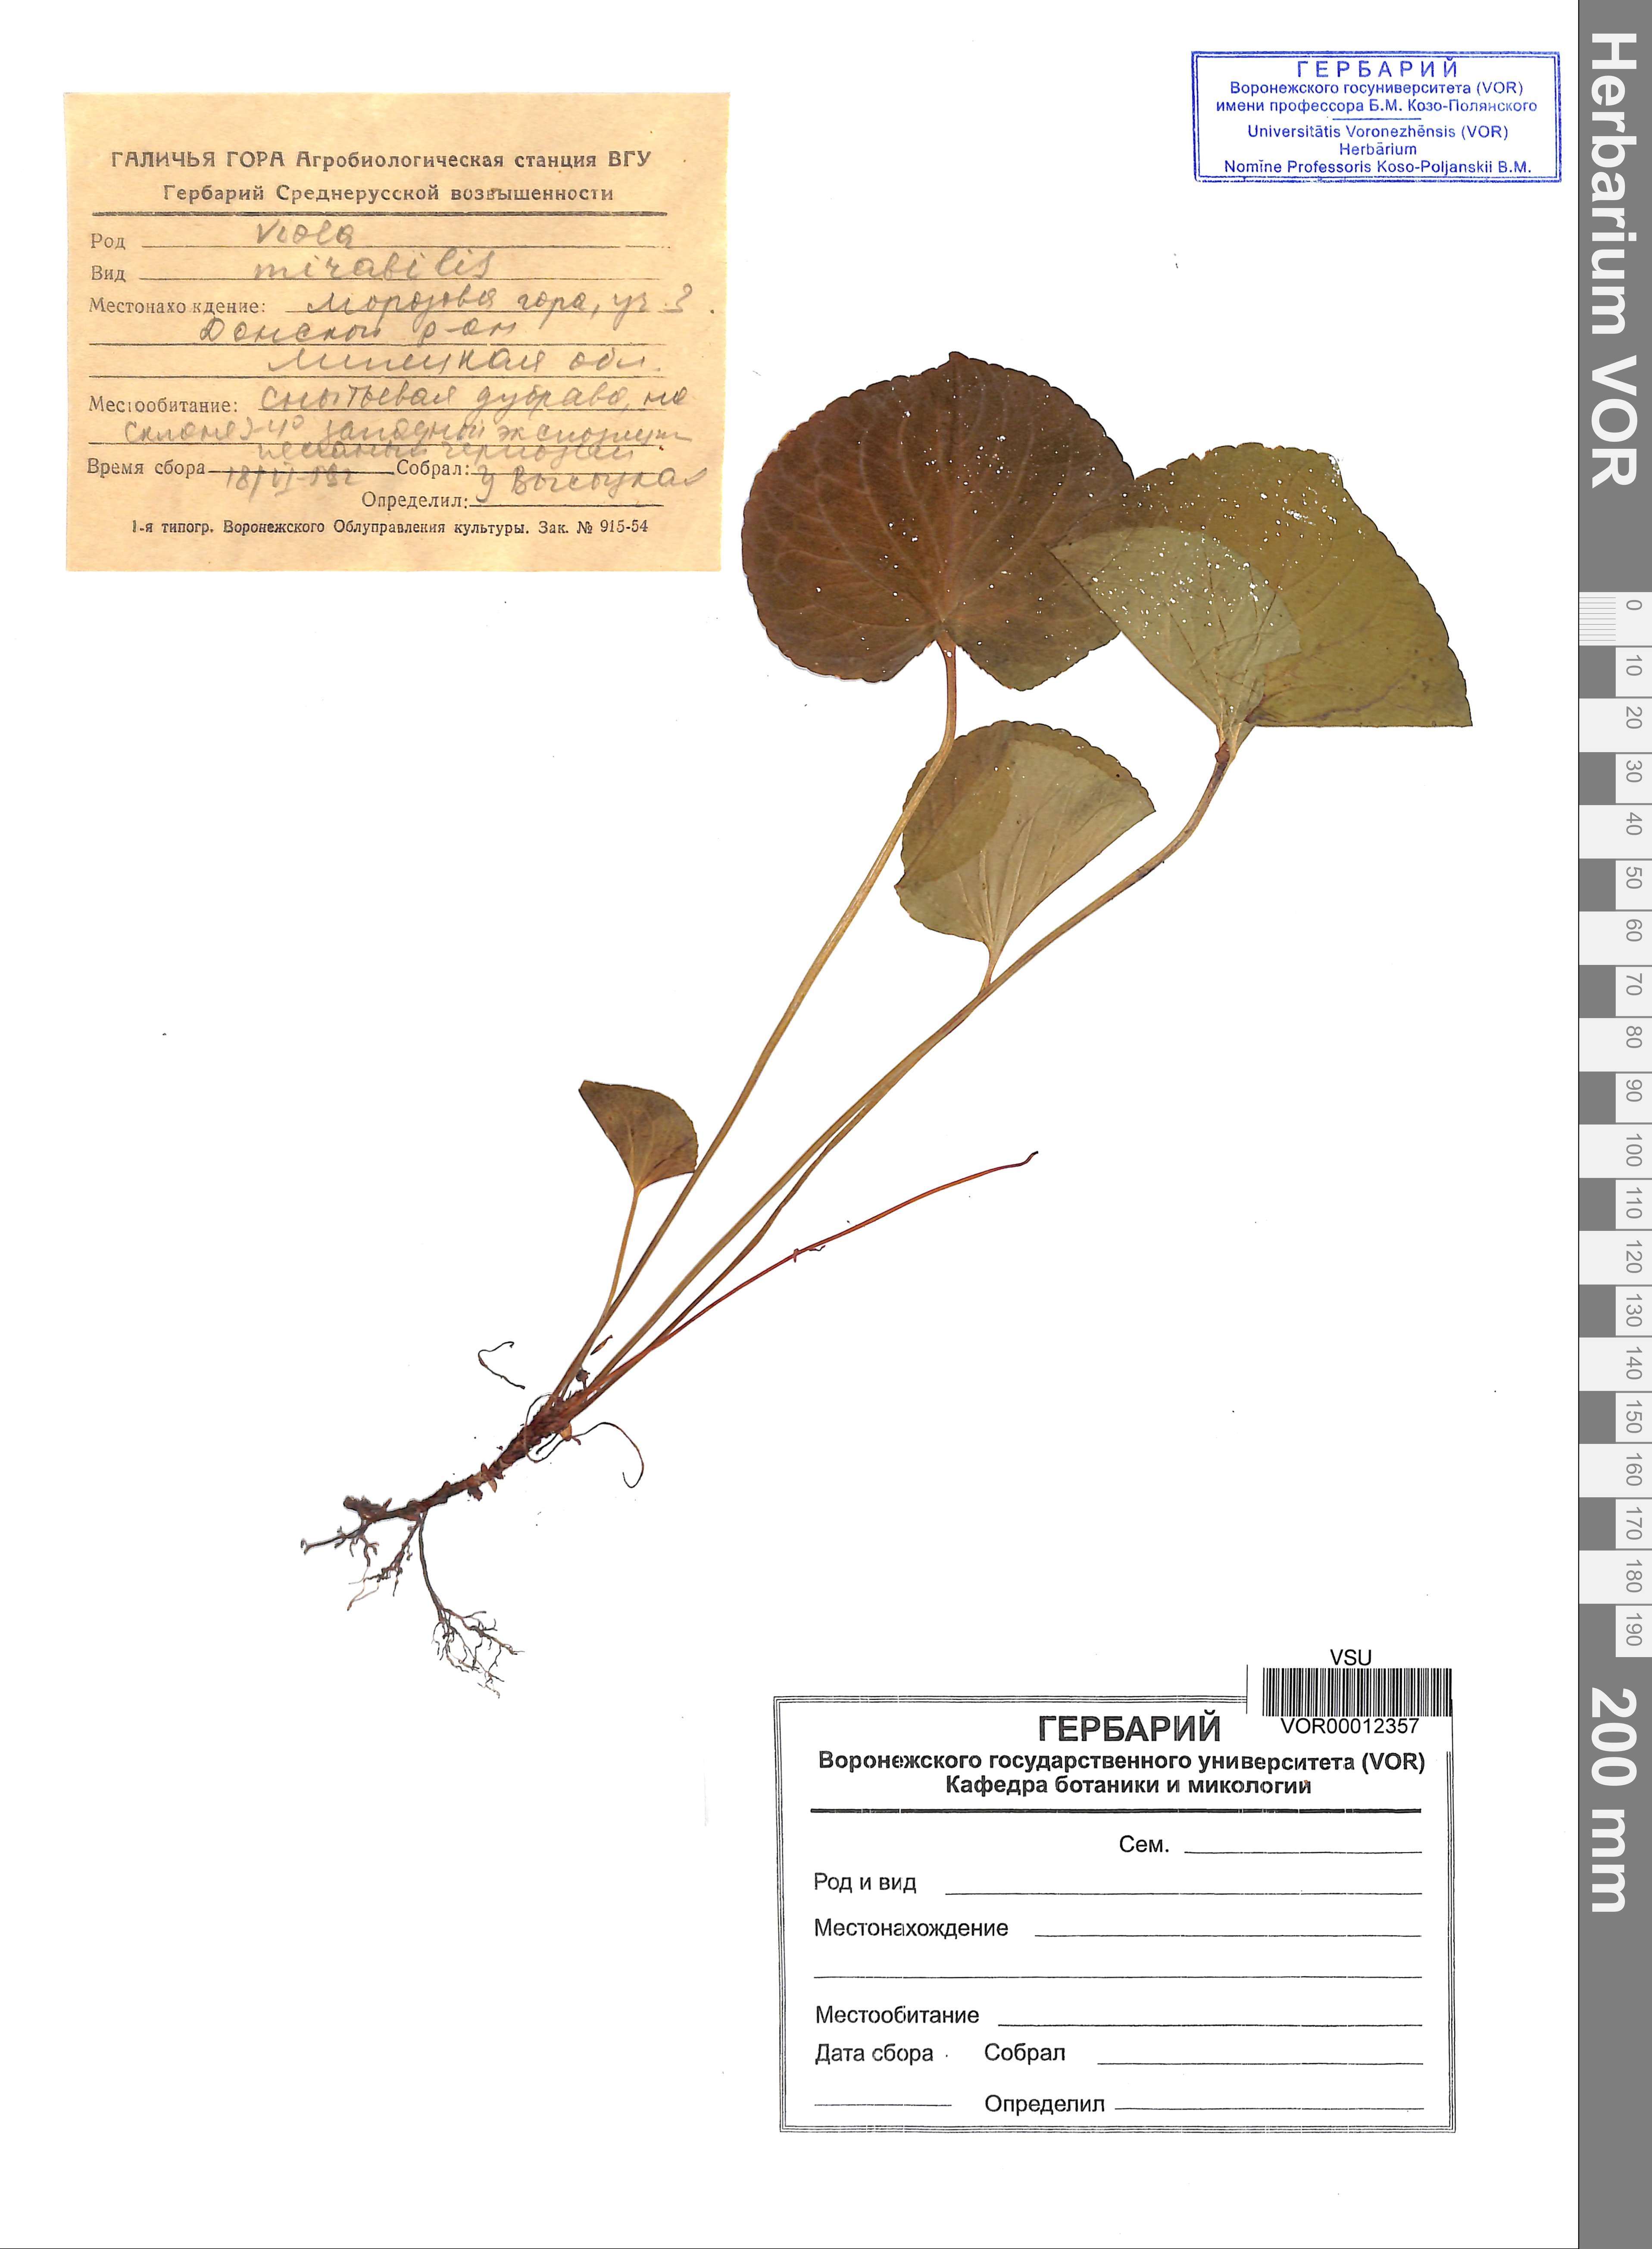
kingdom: Plantae
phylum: Tracheophyta
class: Magnoliopsida
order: Malpighiales
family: Violaceae
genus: Viola
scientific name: Viola mirabilis
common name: Wonder violet
